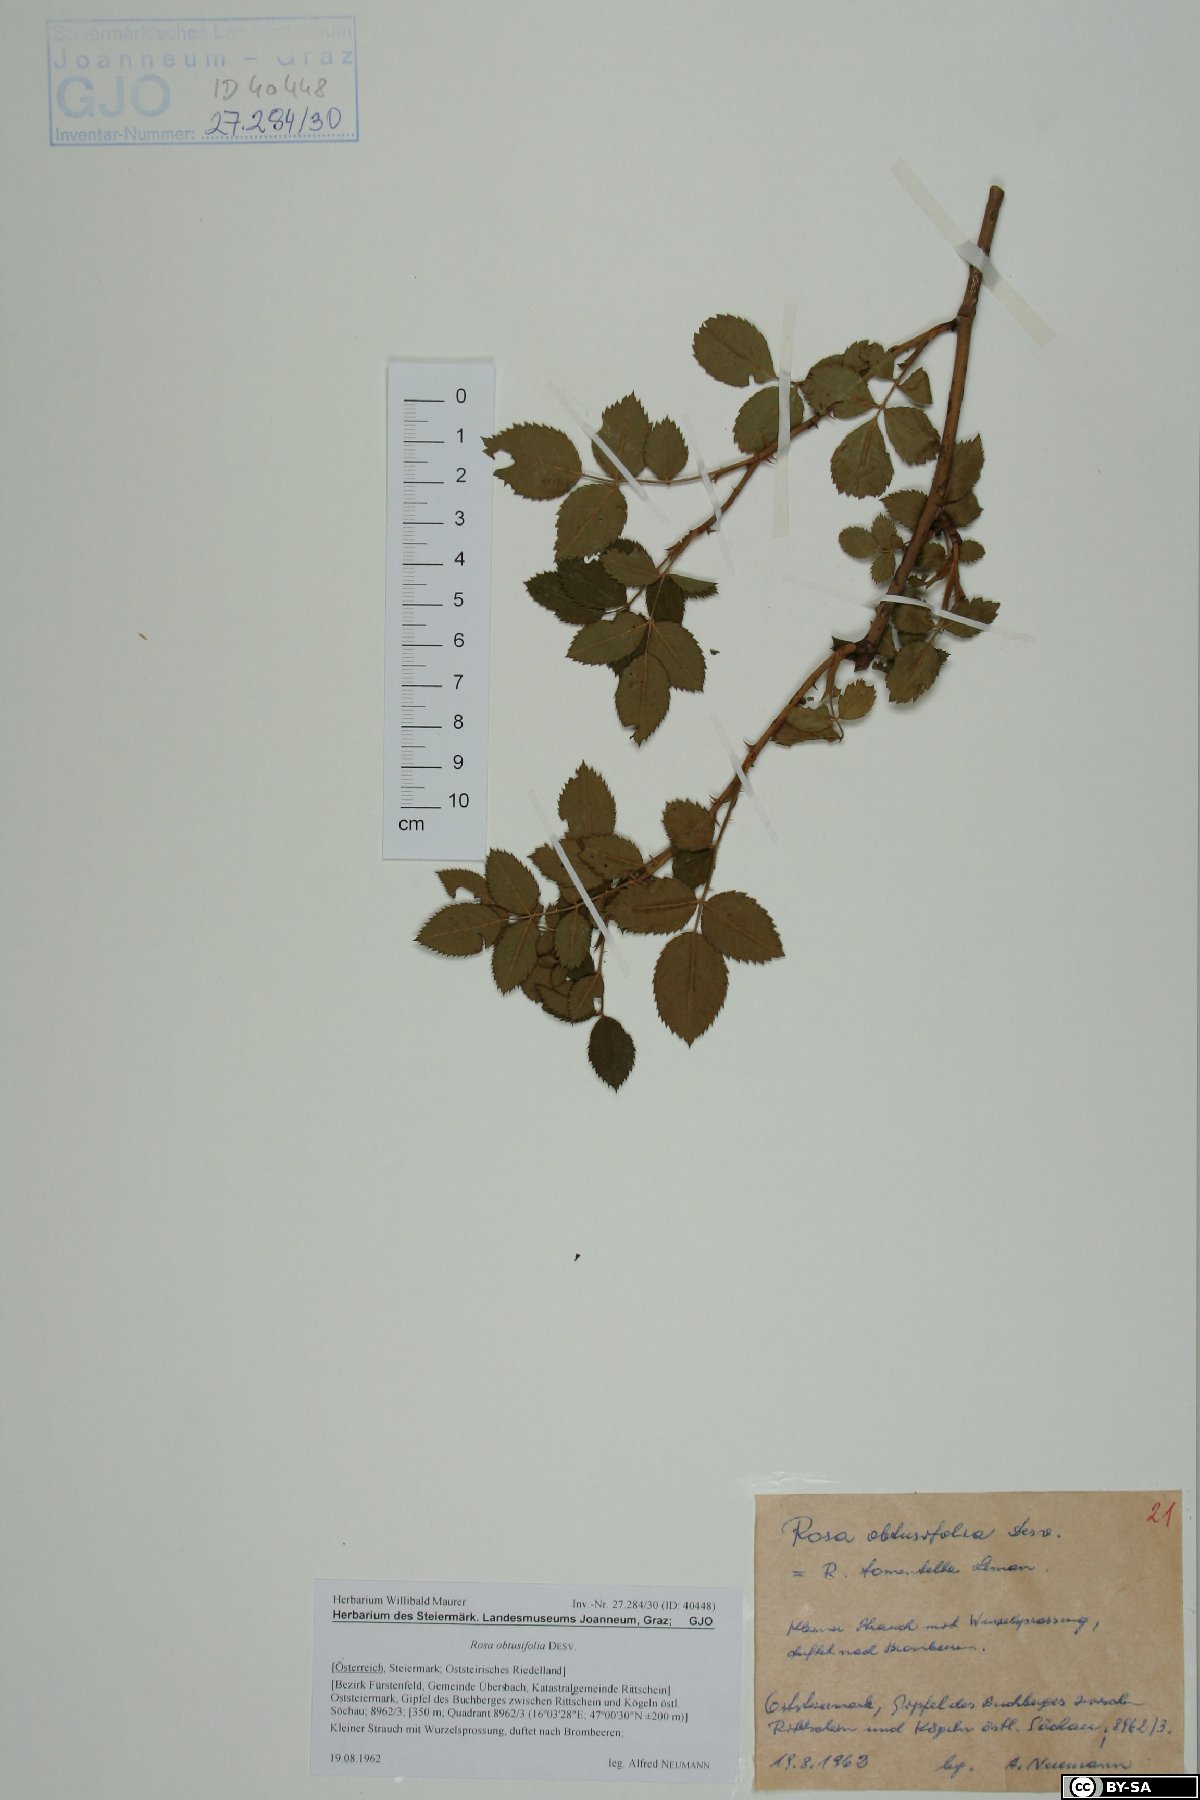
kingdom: Plantae
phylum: Tracheophyta
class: Magnoliopsida
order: Rosales
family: Rosaceae
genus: Rosa
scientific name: Rosa obtusifolia
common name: Round-leaved dog-rose
